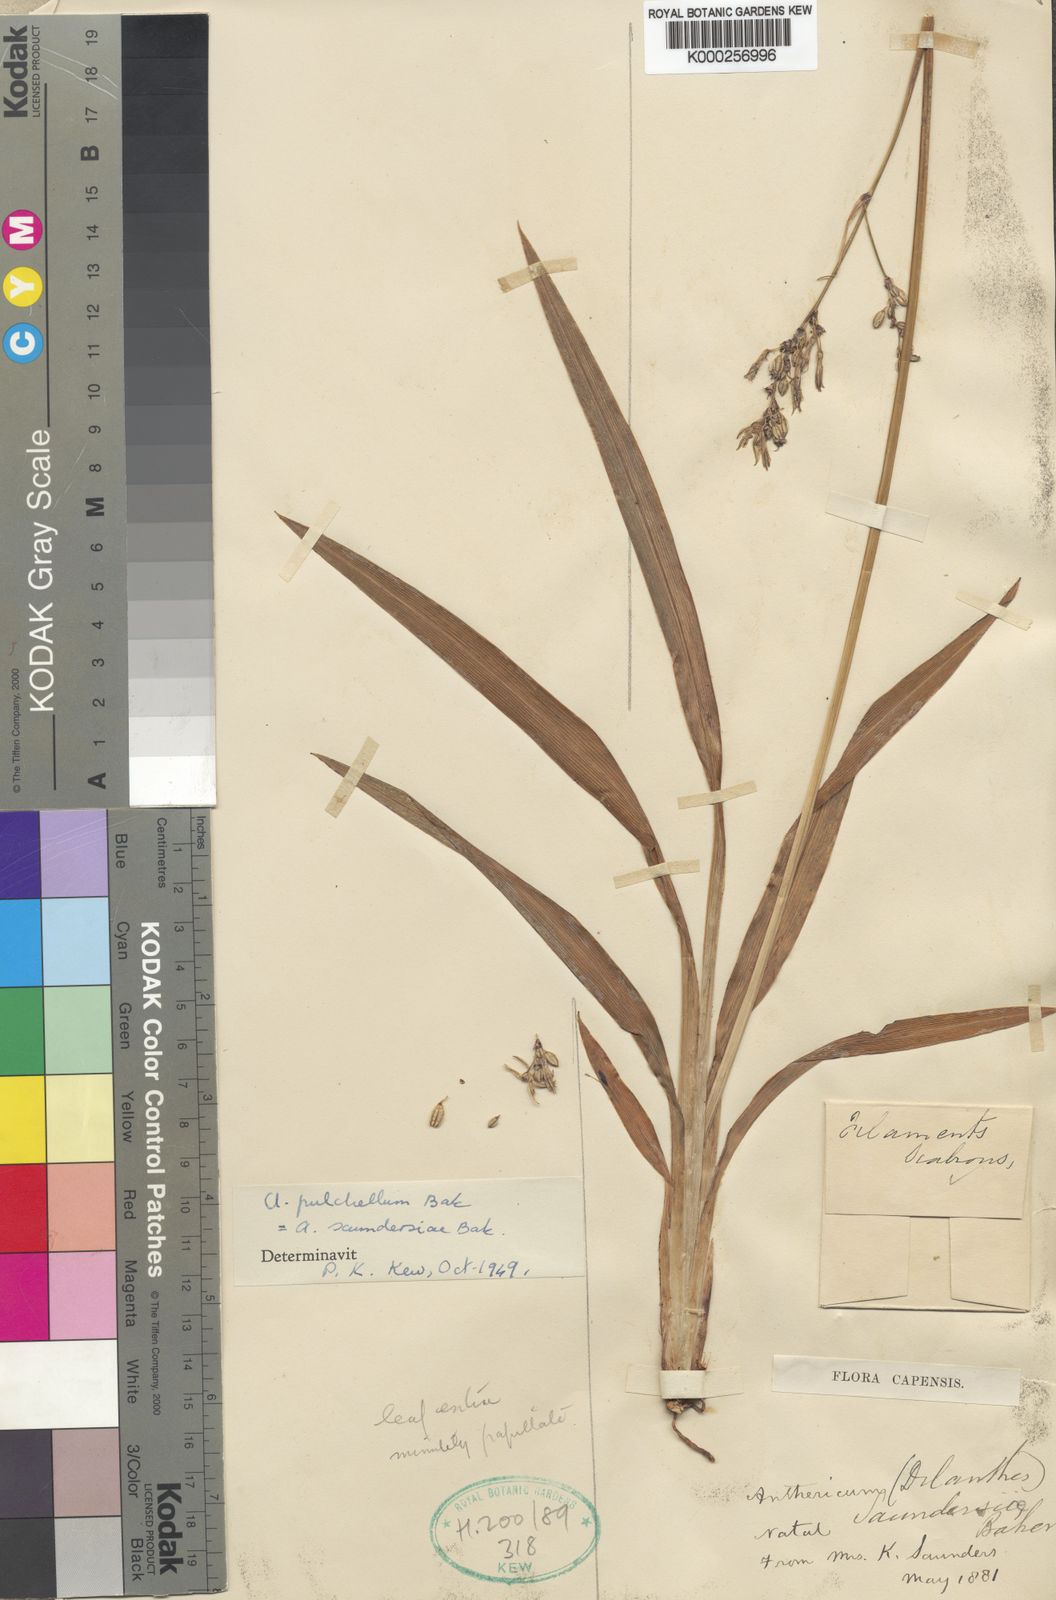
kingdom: Plantae
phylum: Tracheophyta
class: Liliopsida
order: Asparagales
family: Asparagaceae
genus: Chlorophytum
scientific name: Chlorophytum saundersiae
